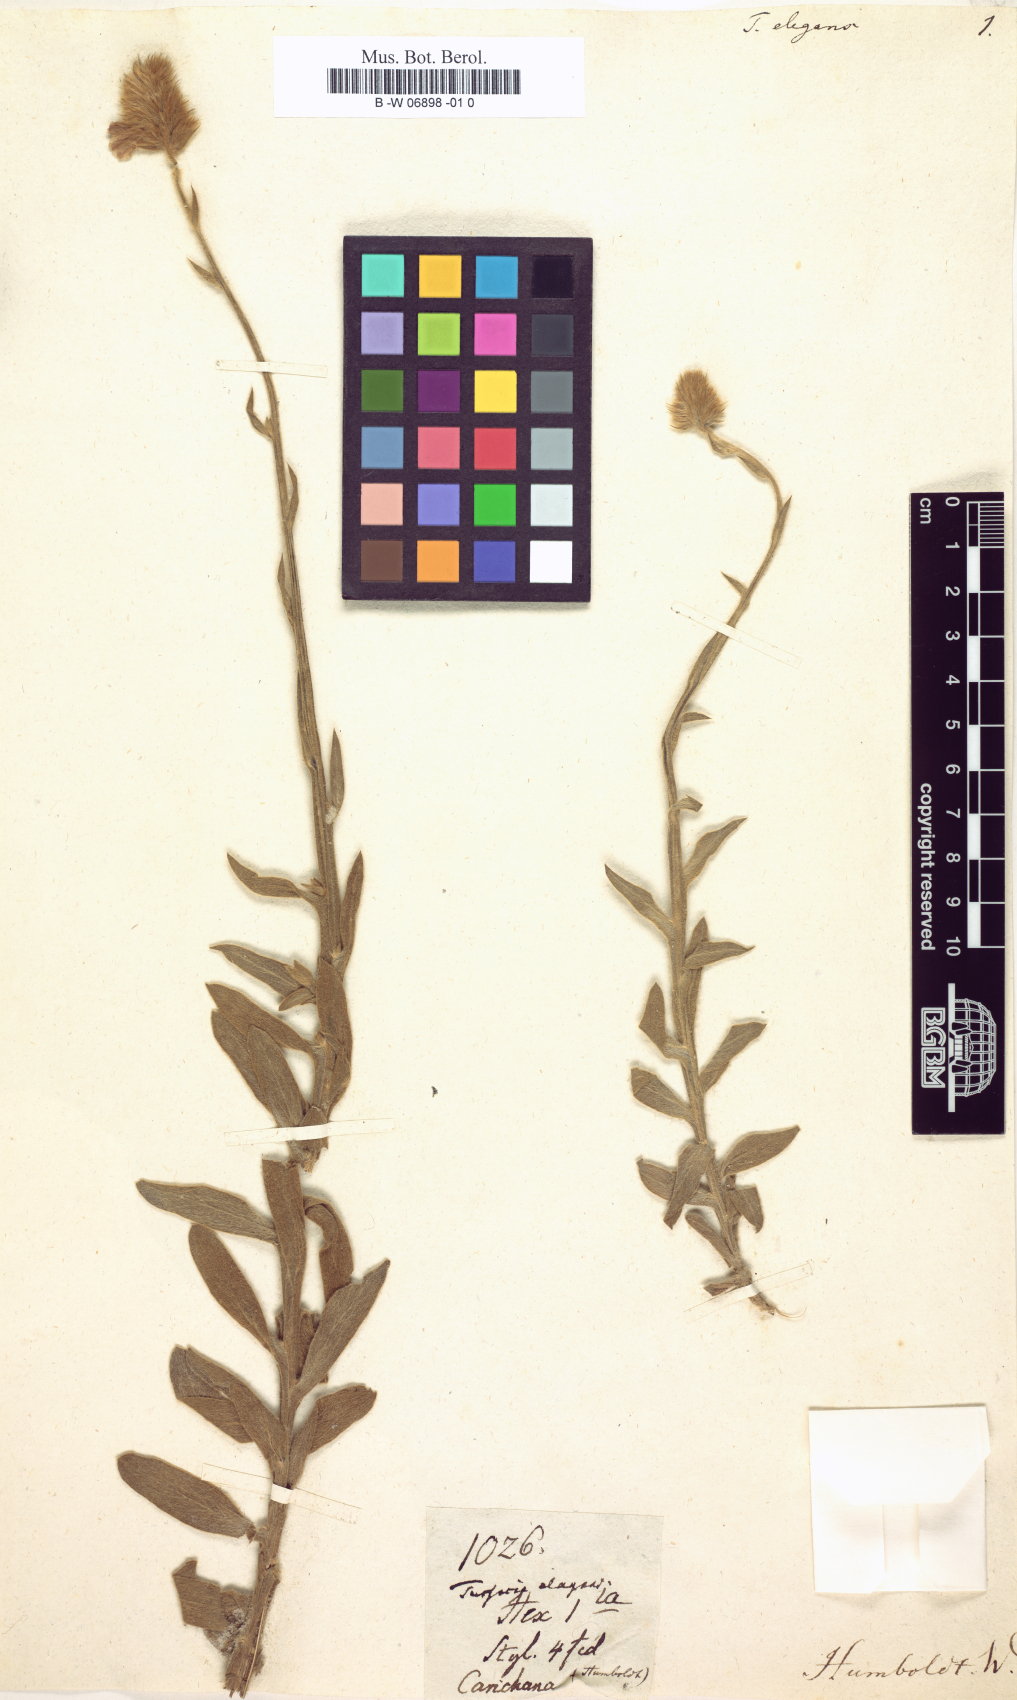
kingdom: Plantae
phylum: Tracheophyta
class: Magnoliopsida
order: Solanales
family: Convolvulaceae
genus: Evolvulus
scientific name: Evolvulus Tussacia elegans
